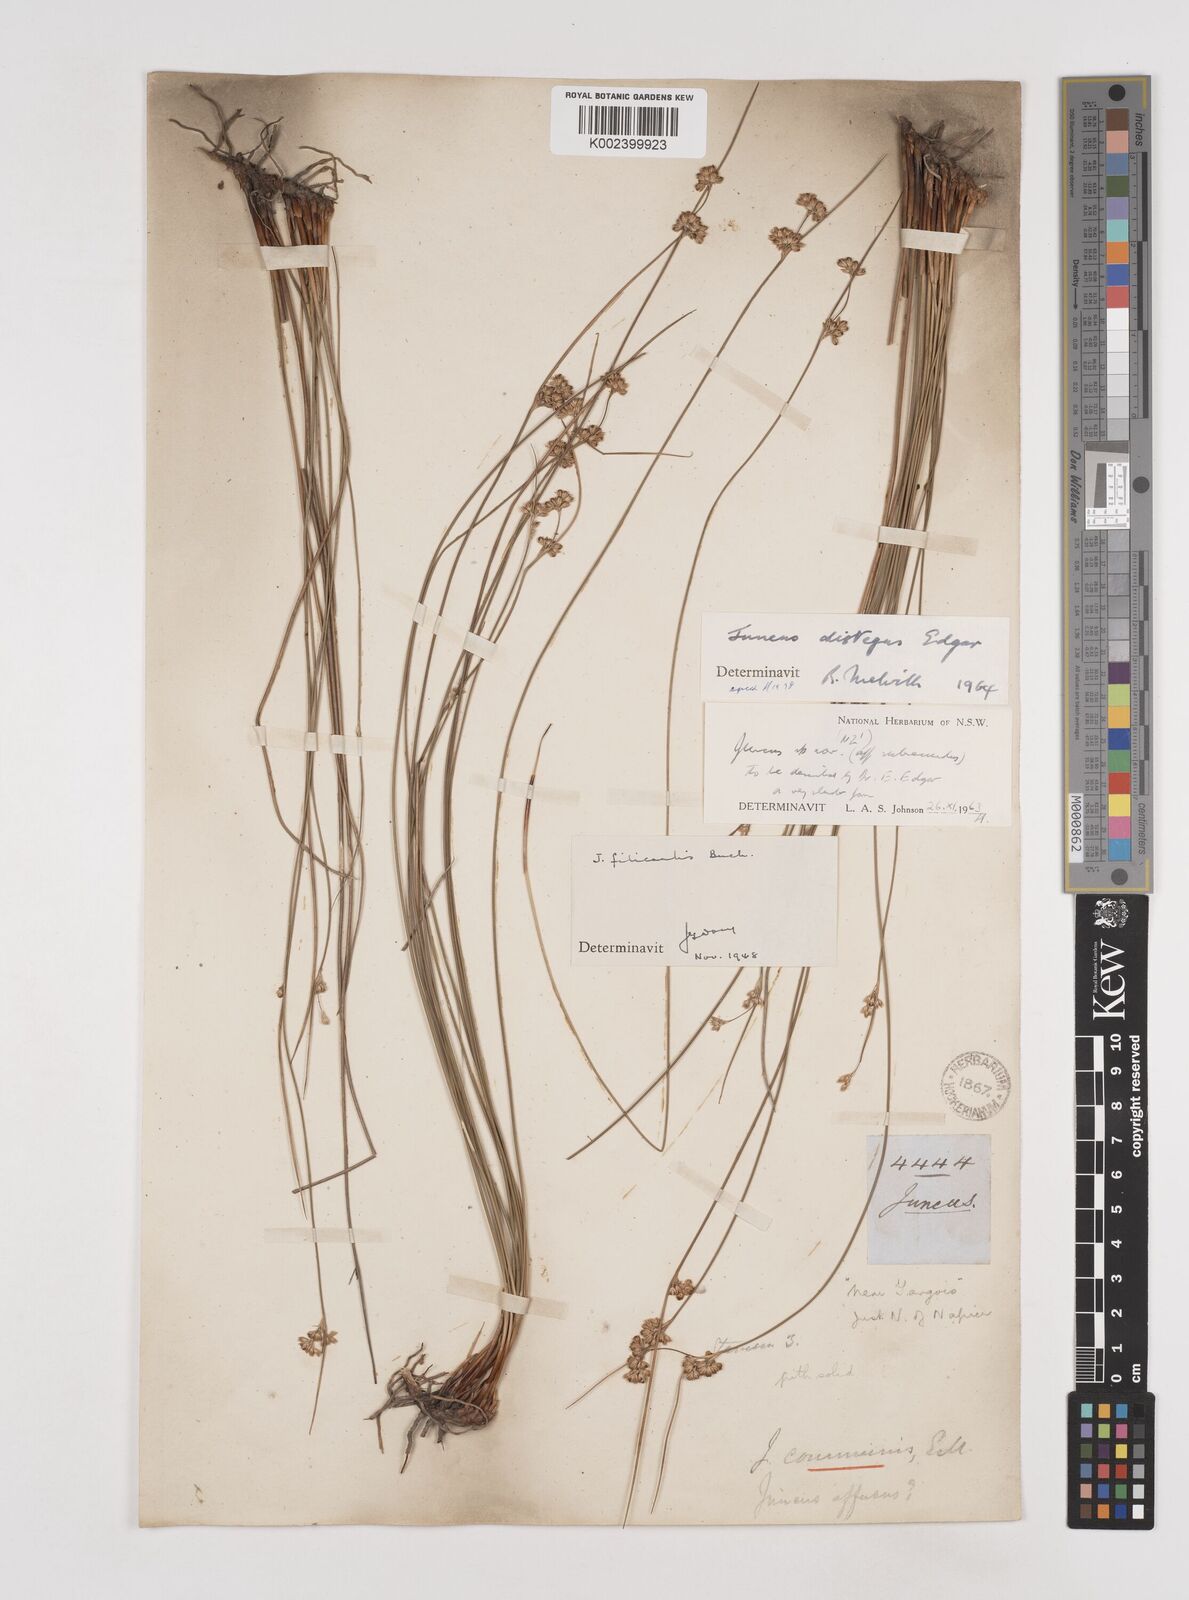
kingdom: Plantae
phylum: Tracheophyta
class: Liliopsida
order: Poales
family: Juncaceae
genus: Juncus
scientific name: Juncus distegus
